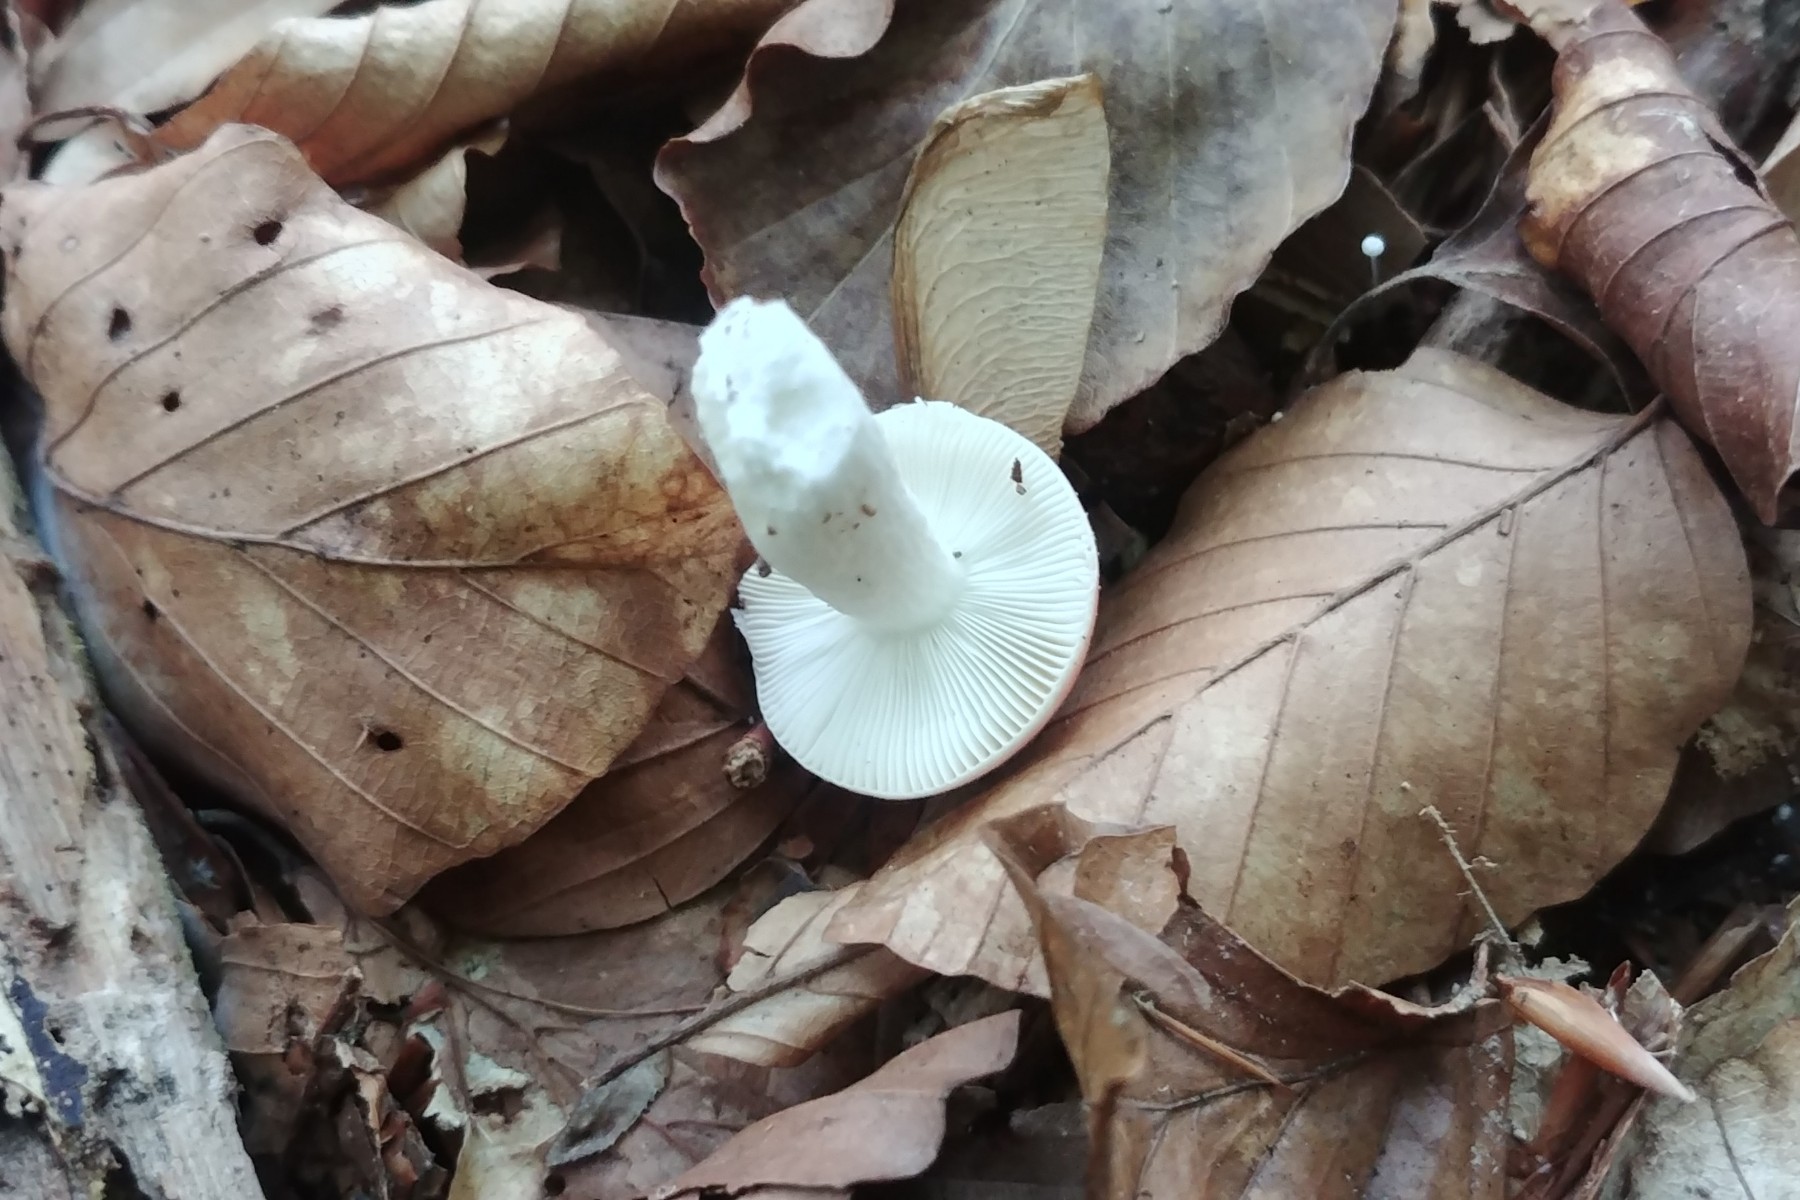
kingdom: Fungi
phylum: Basidiomycota
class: Agaricomycetes
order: Russulales
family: Russulaceae
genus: Russula
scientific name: Russula nobilis
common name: lille gift-skørhat
